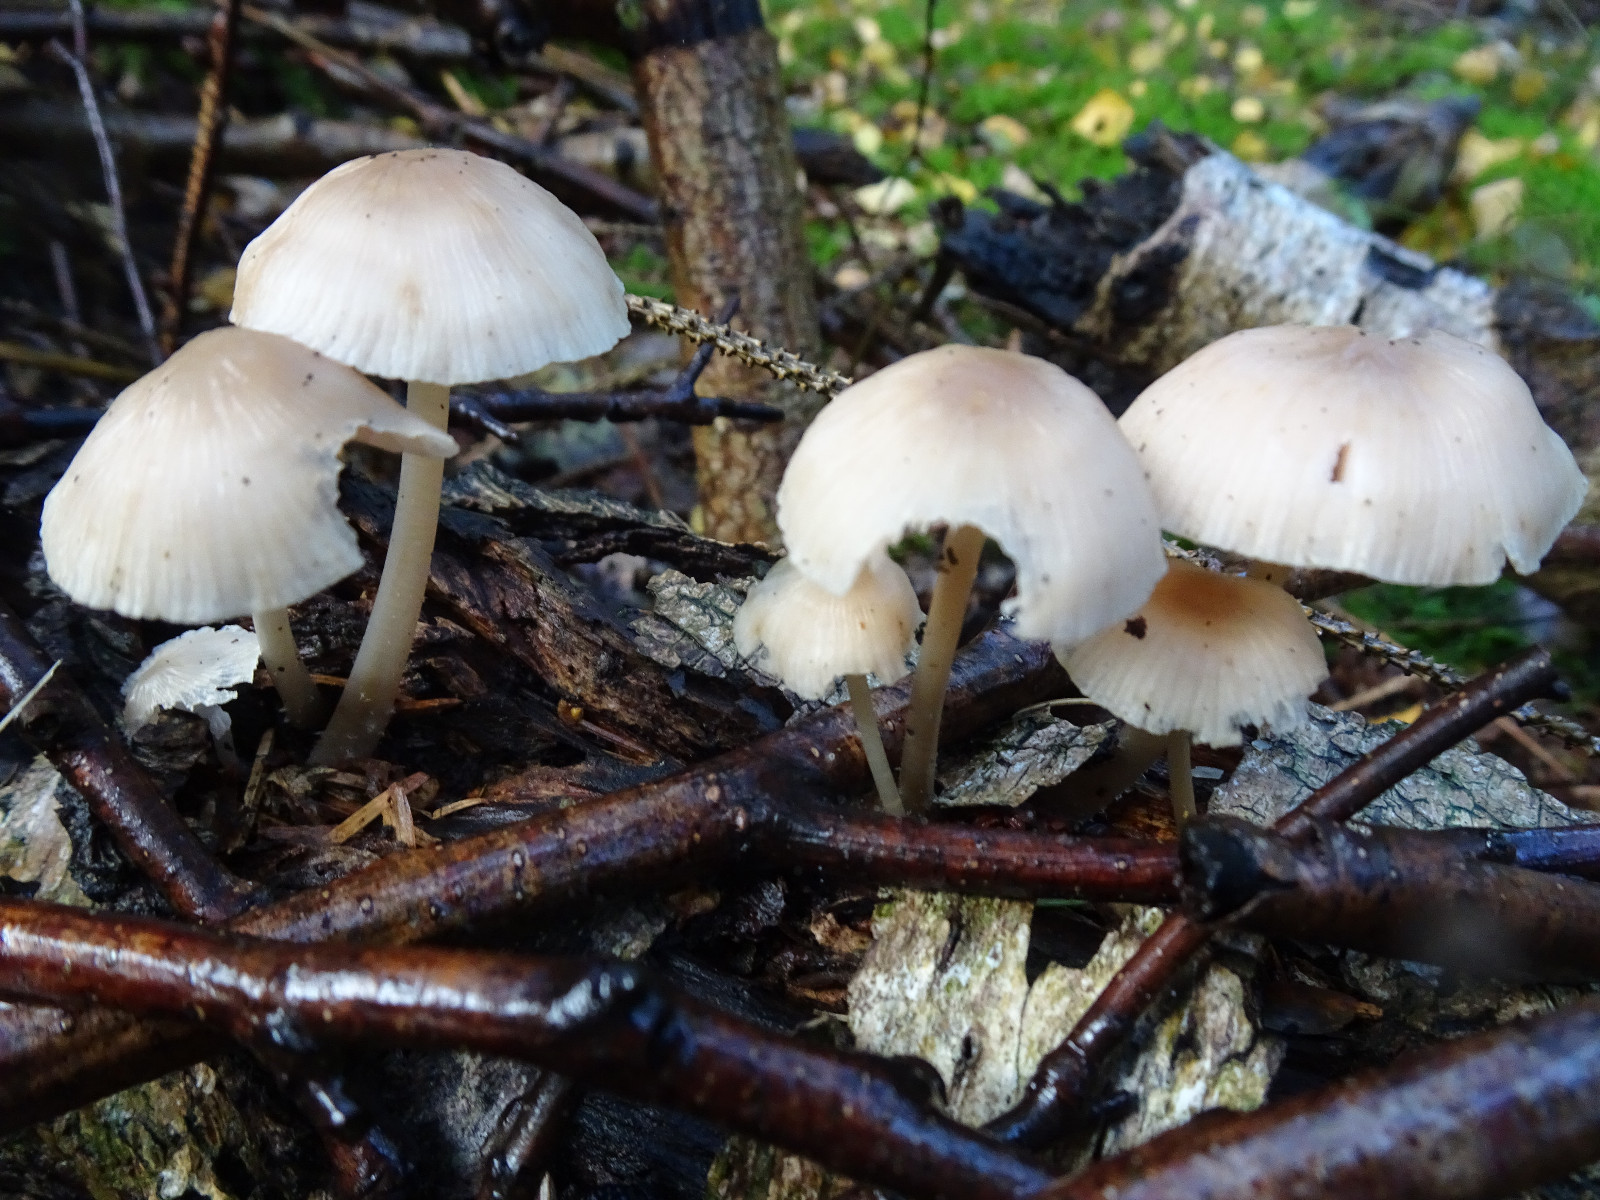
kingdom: Fungi
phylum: Basidiomycota
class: Agaricomycetes
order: Agaricales
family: Mycenaceae
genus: Mycena
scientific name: Mycena galericulata
